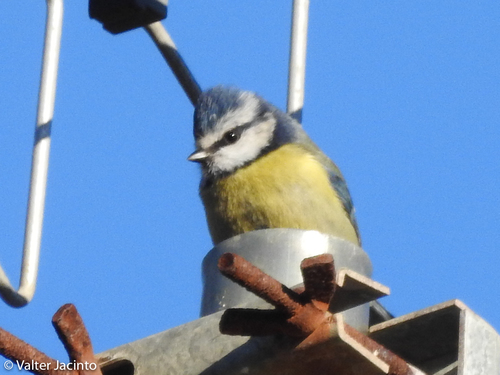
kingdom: Animalia
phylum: Chordata
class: Aves
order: Passeriformes
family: Paridae
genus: Cyanistes
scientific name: Cyanistes caeruleus
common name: Eurasian blue tit
